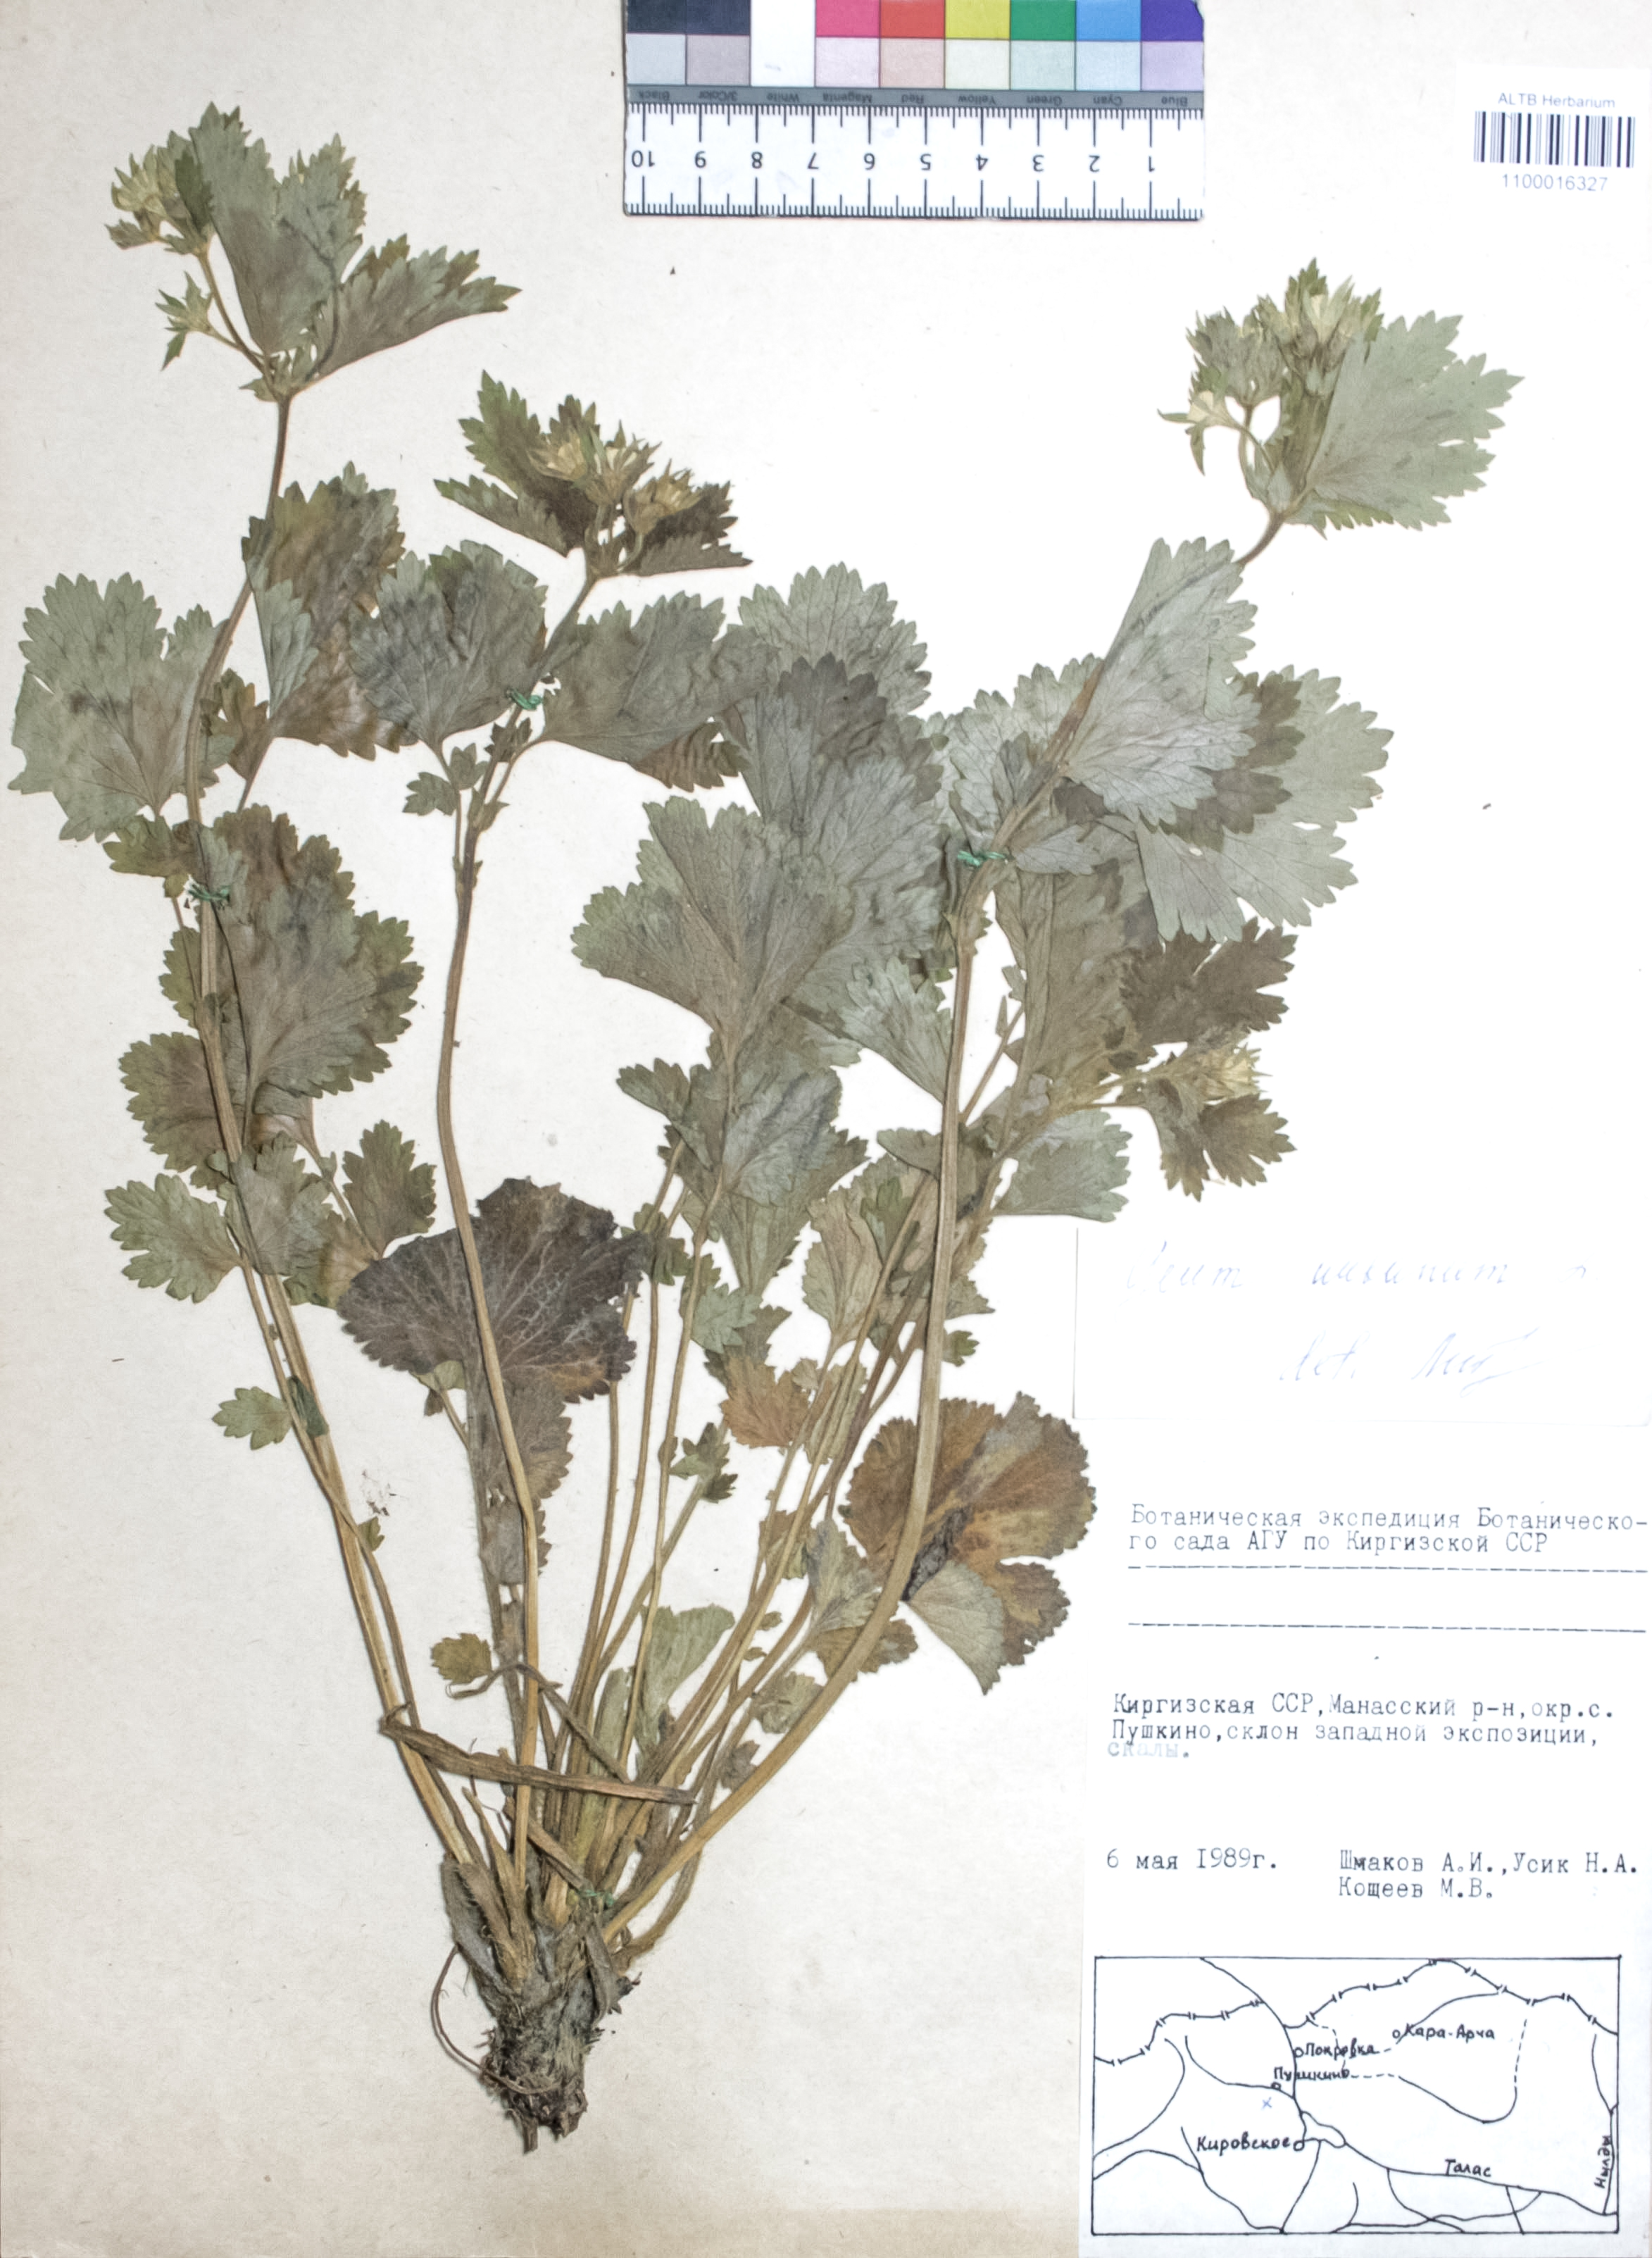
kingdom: Plantae
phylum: Tracheophyta
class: Magnoliopsida
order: Rosales
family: Rosaceae
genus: Geum
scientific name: Geum urbanum
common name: Wood avens
